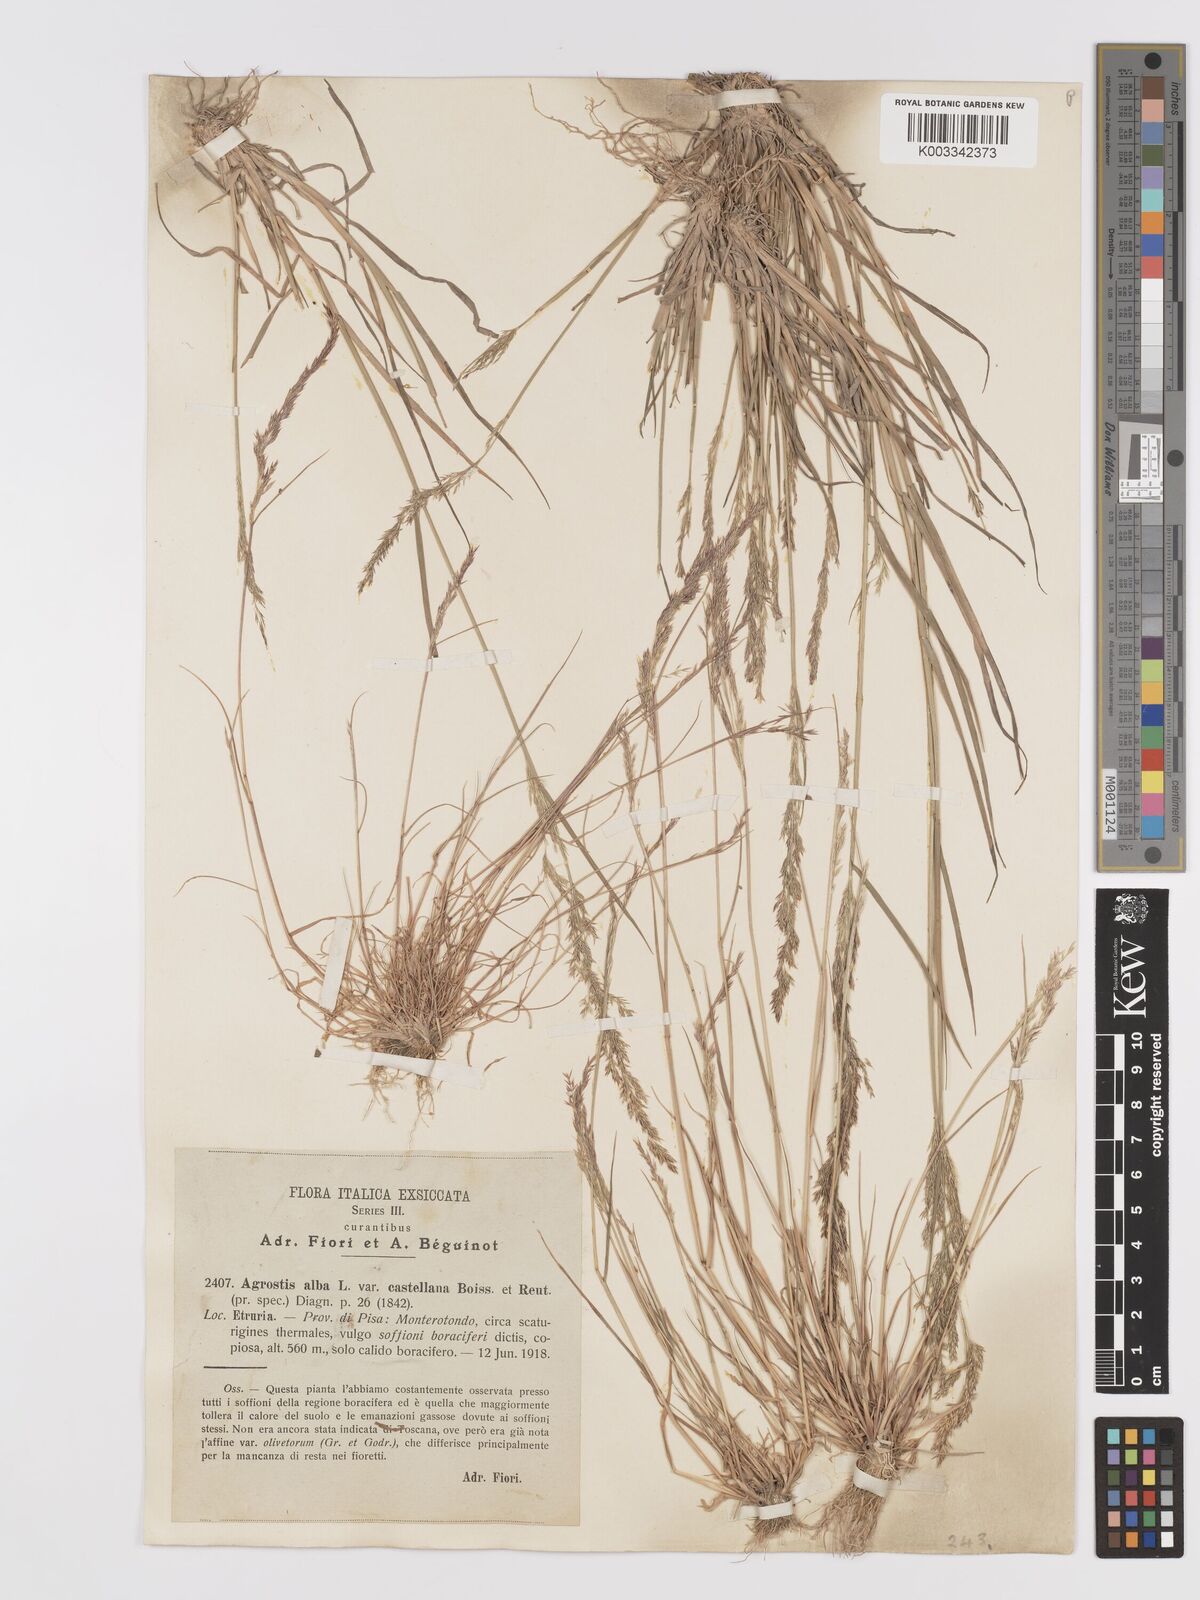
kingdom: Plantae
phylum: Tracheophyta
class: Liliopsida
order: Poales
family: Poaceae
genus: Agrostis
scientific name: Agrostis castellana
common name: Highland bent
